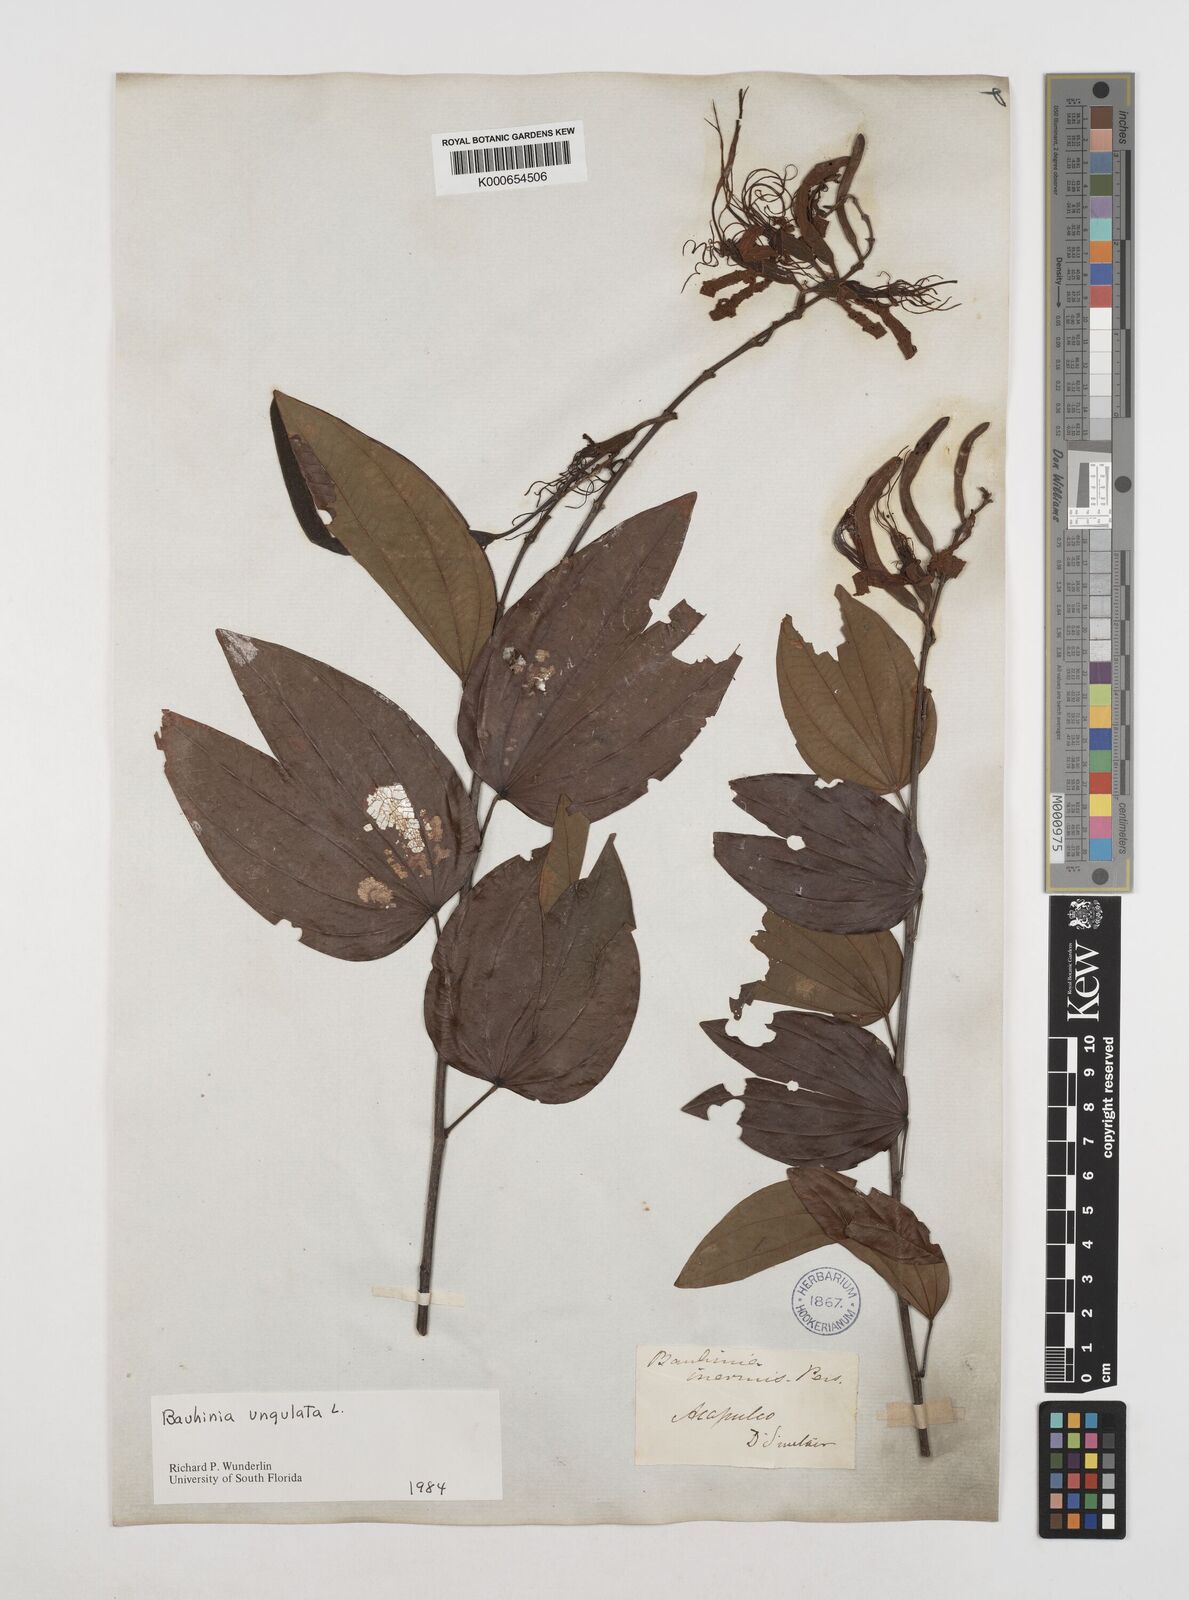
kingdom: Plantae
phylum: Tracheophyta
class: Magnoliopsida
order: Fabales
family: Fabaceae
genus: Bauhinia
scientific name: Bauhinia ungulata
